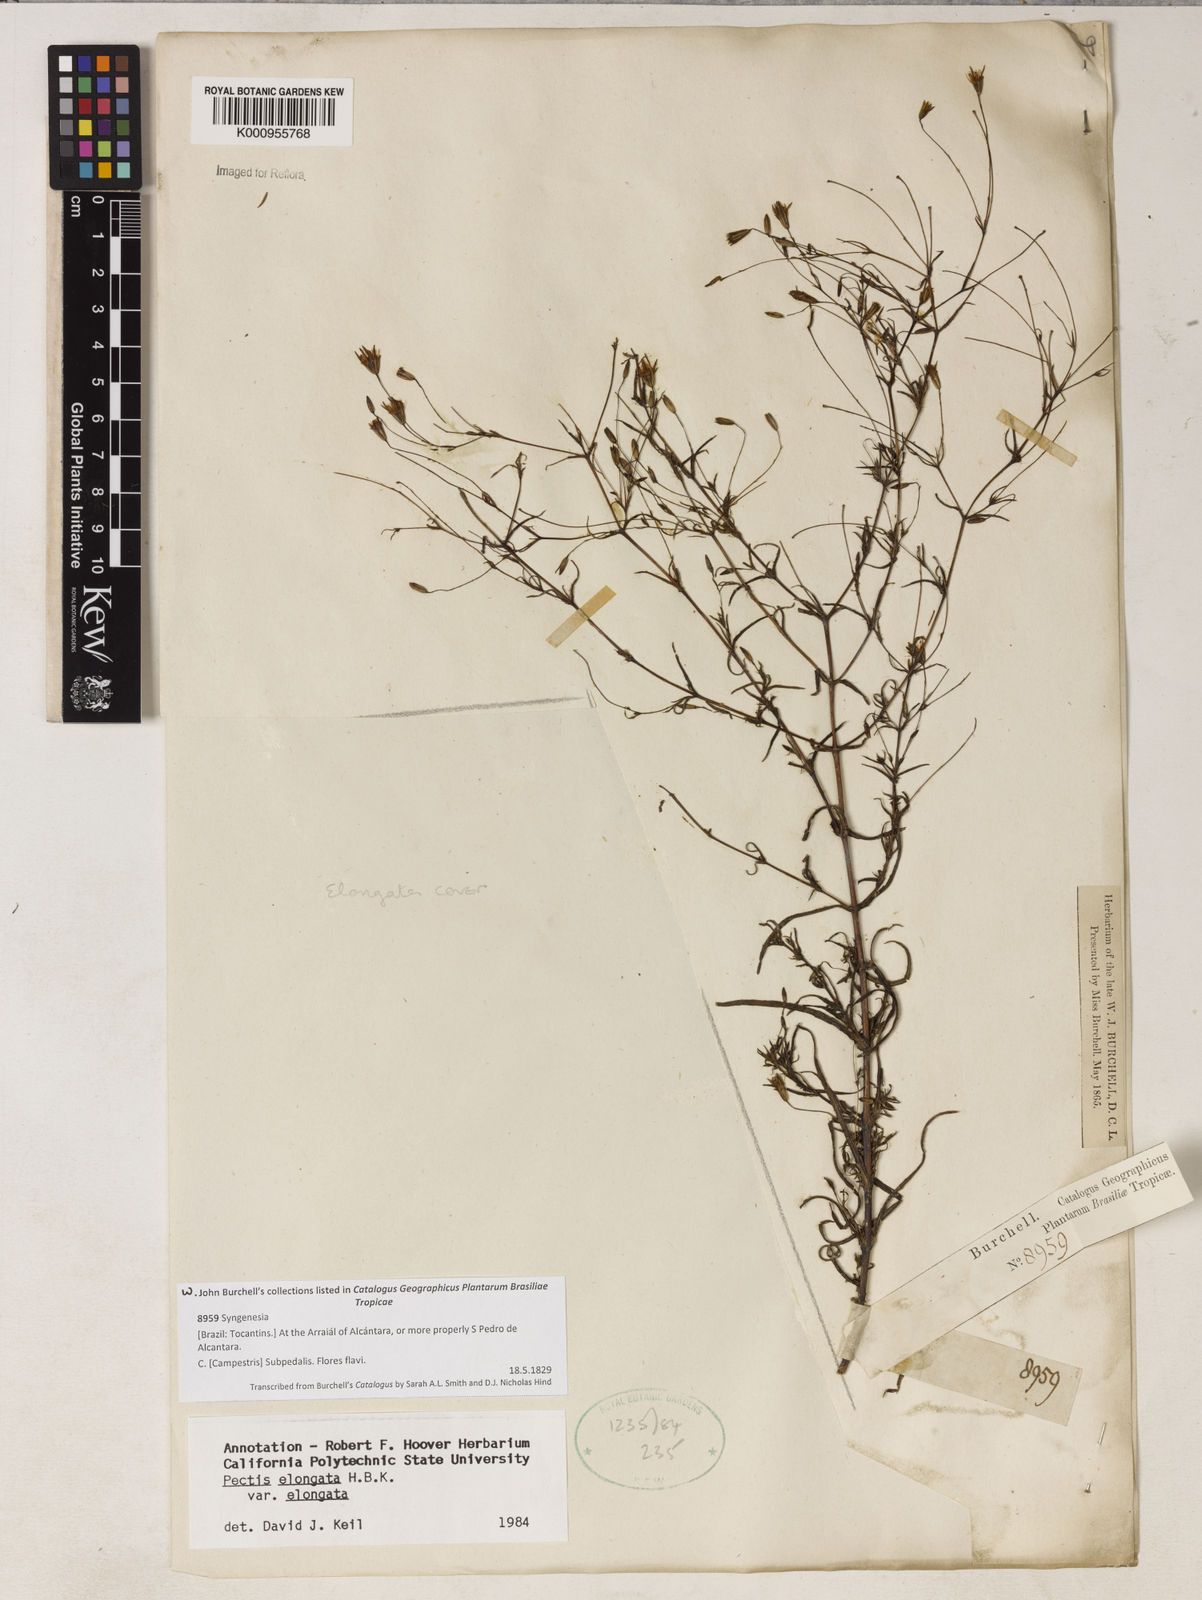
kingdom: Plantae
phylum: Tracheophyta
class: Magnoliopsida
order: Asterales
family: Asteraceae
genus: Pectis
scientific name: Pectis elongata
